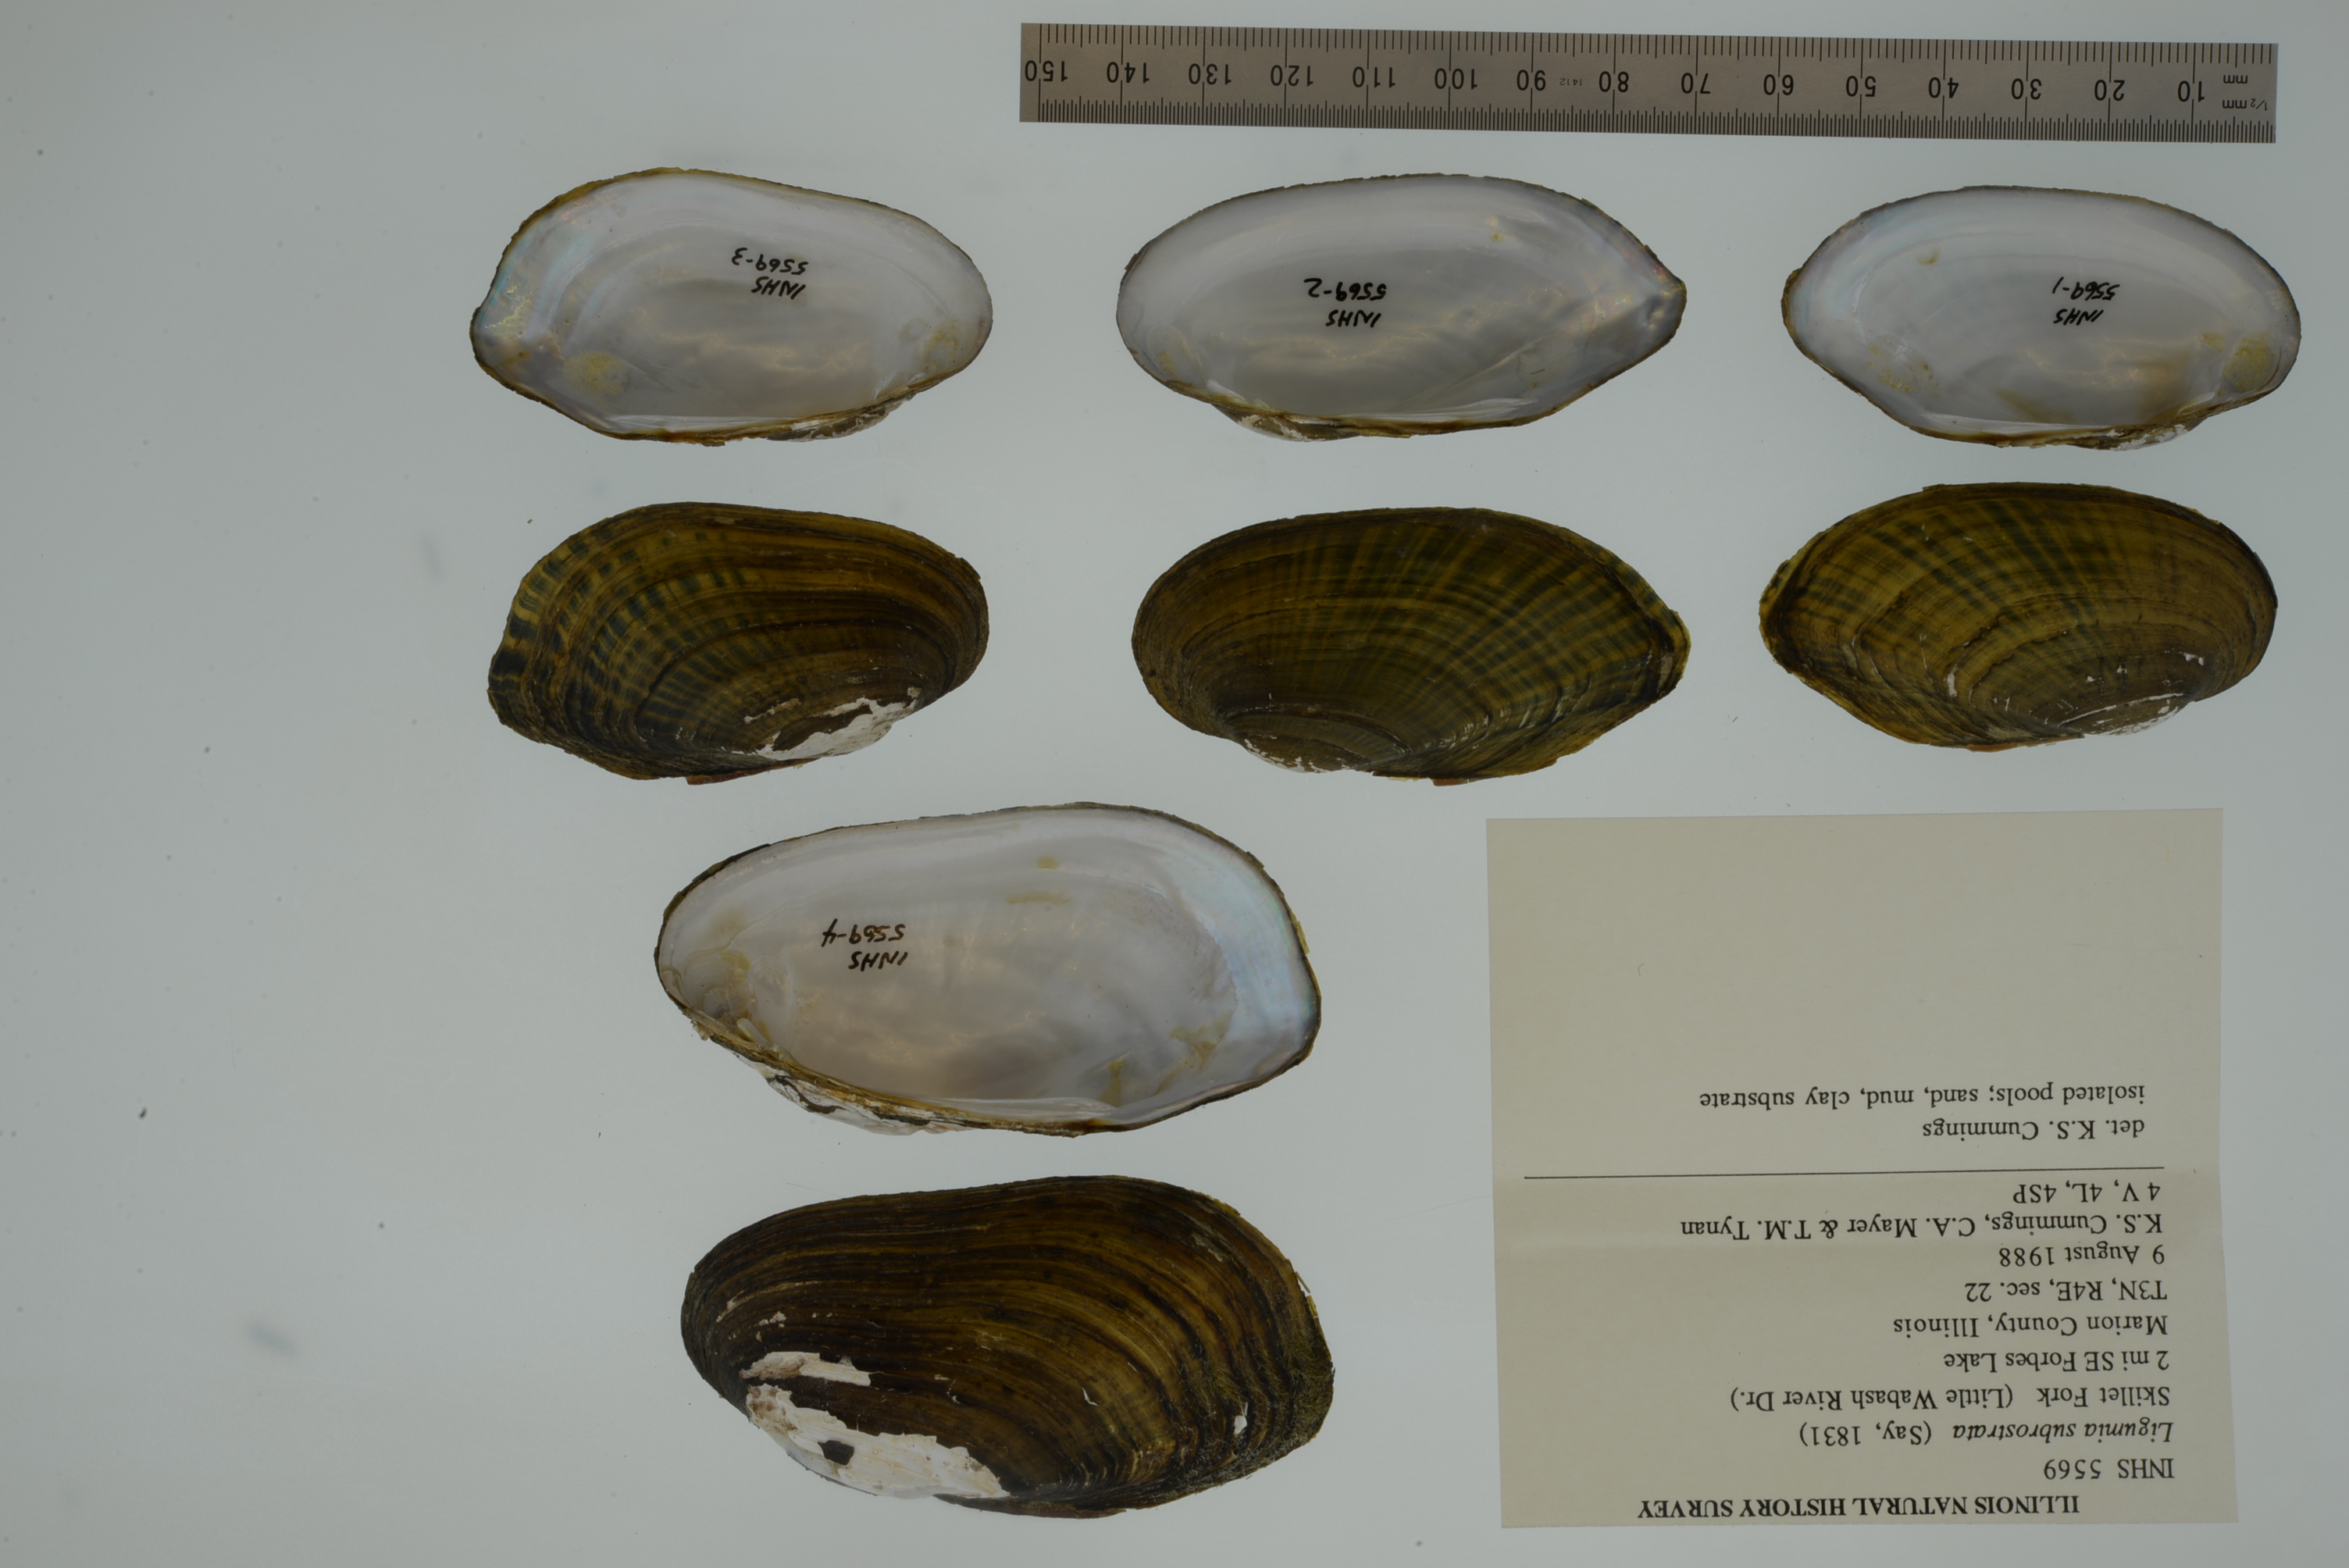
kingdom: Animalia
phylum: Mollusca
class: Bivalvia
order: Unionida
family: Unionidae
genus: Sagittunio
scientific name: Sagittunio subrostratus
